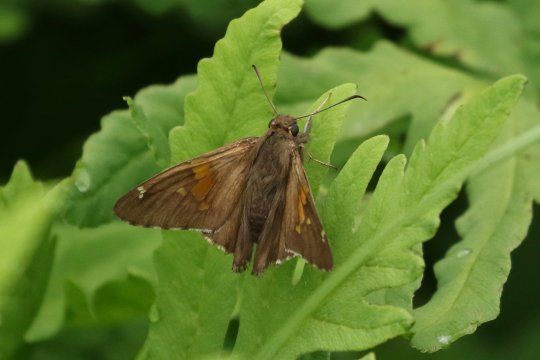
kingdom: Animalia
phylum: Arthropoda
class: Insecta
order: Lepidoptera
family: Hesperiidae
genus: Epargyreus
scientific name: Epargyreus clarus
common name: Silver-spotted Skipper
